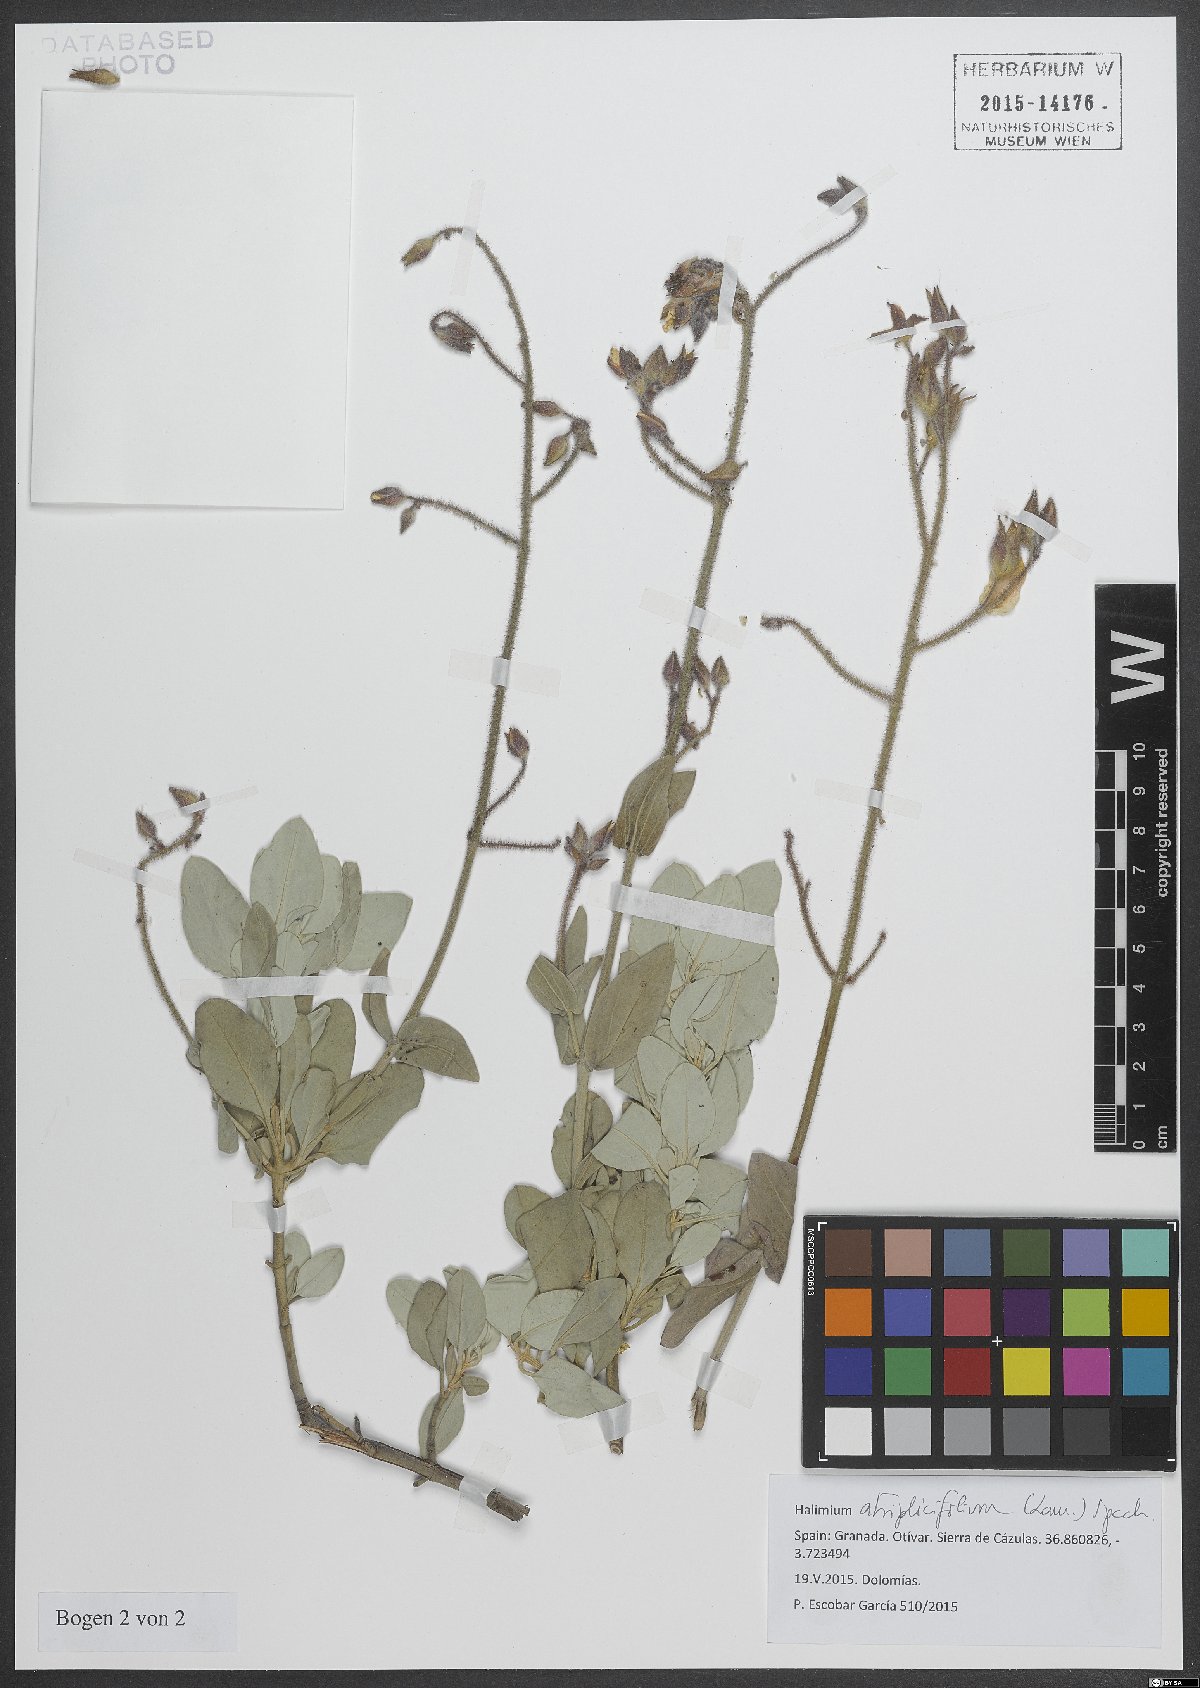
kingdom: Plantae
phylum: Tracheophyta
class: Magnoliopsida
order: Malvales
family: Cistaceae
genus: Halimium
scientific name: Halimium atriplicifolium
